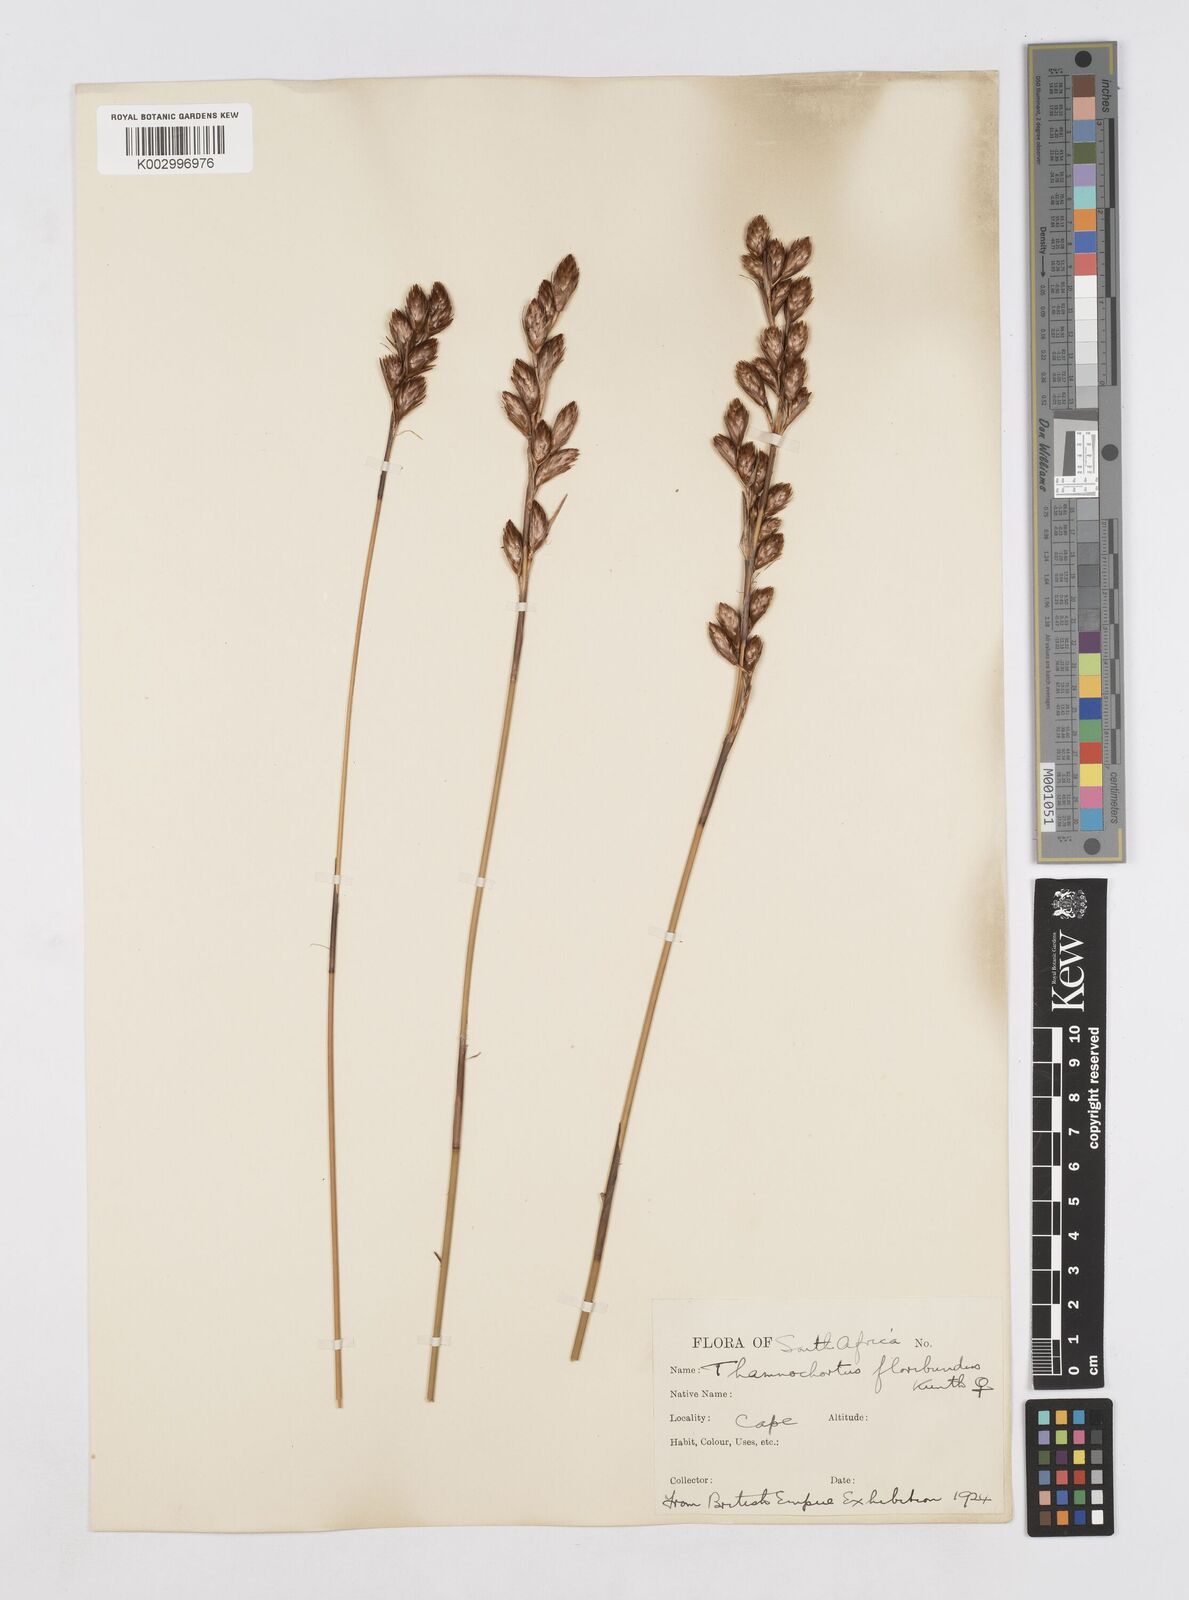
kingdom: Plantae
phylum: Tracheophyta
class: Liliopsida
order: Poales
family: Restionaceae
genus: Thamnochortus
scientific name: Thamnochortus erectus
